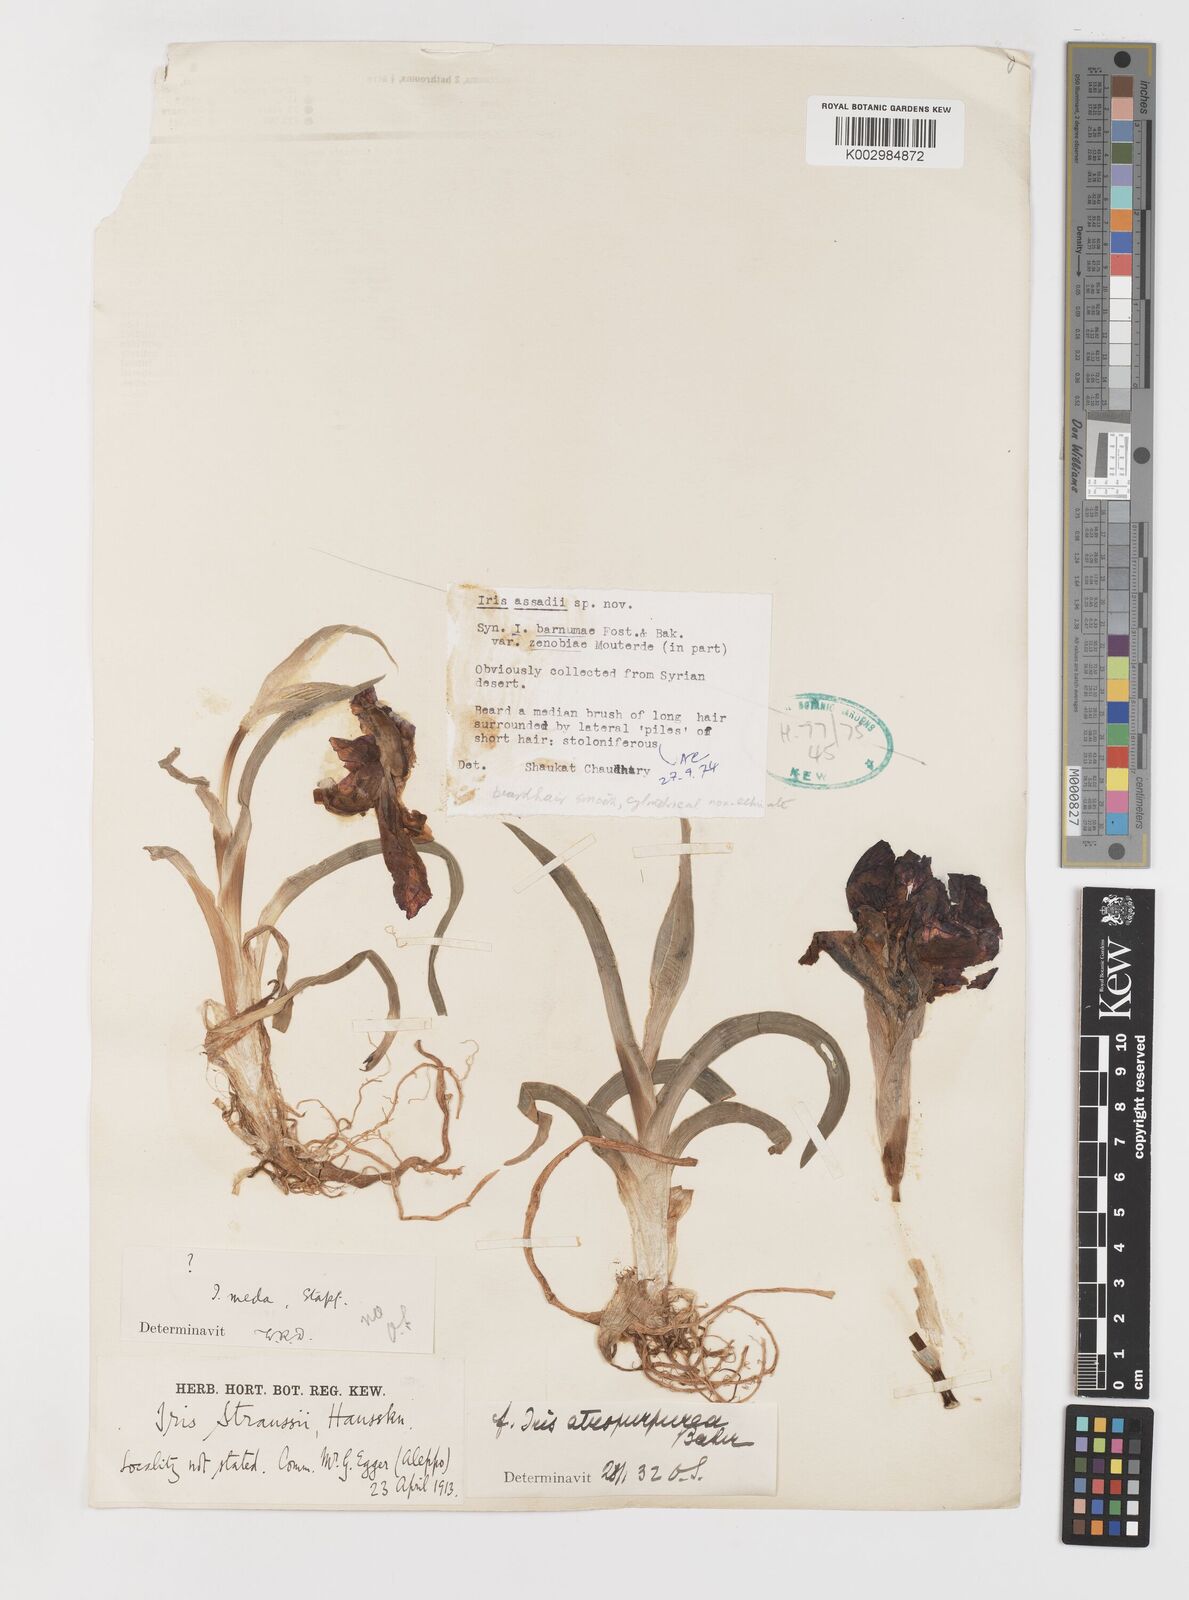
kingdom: Plantae
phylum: Tracheophyta
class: Liliopsida
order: Asparagales
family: Iridaceae
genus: Iris
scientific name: Iris assadiana
